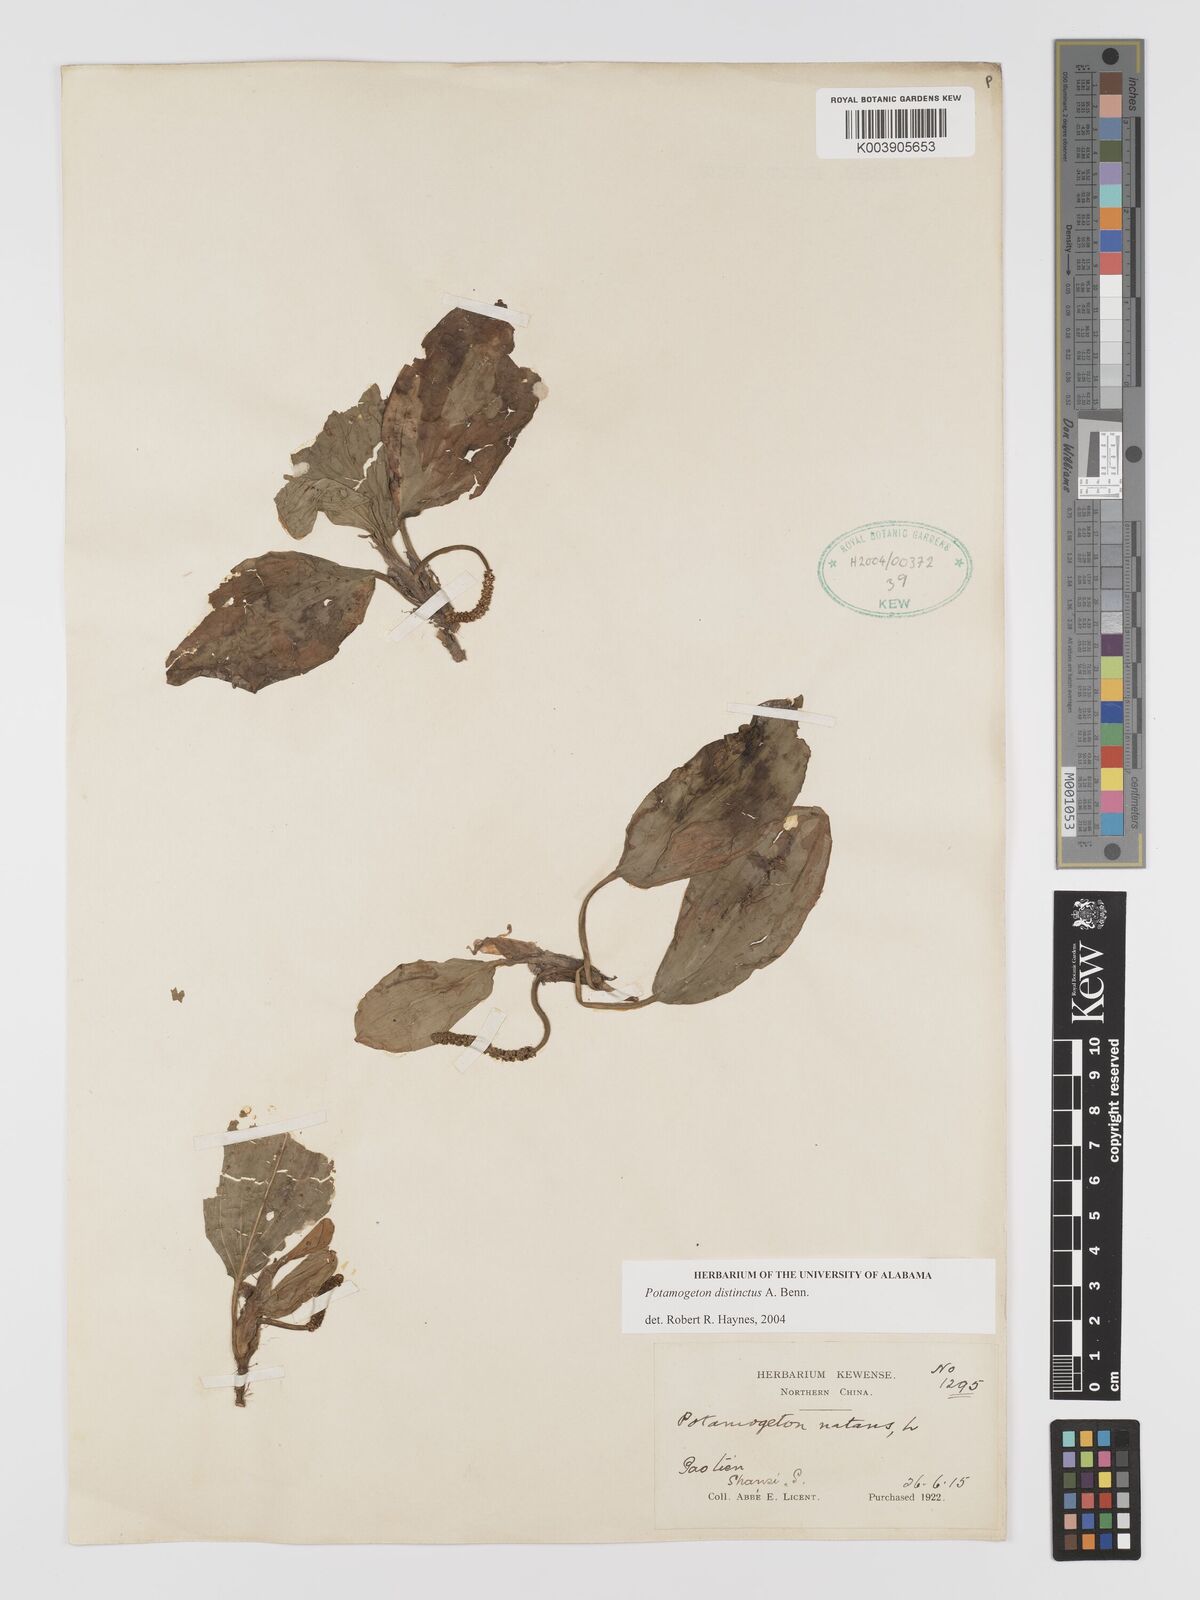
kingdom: Plantae
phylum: Tracheophyta
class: Liliopsida
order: Alismatales
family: Potamogetonaceae
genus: Potamogeton
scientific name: Potamogeton distinctus
